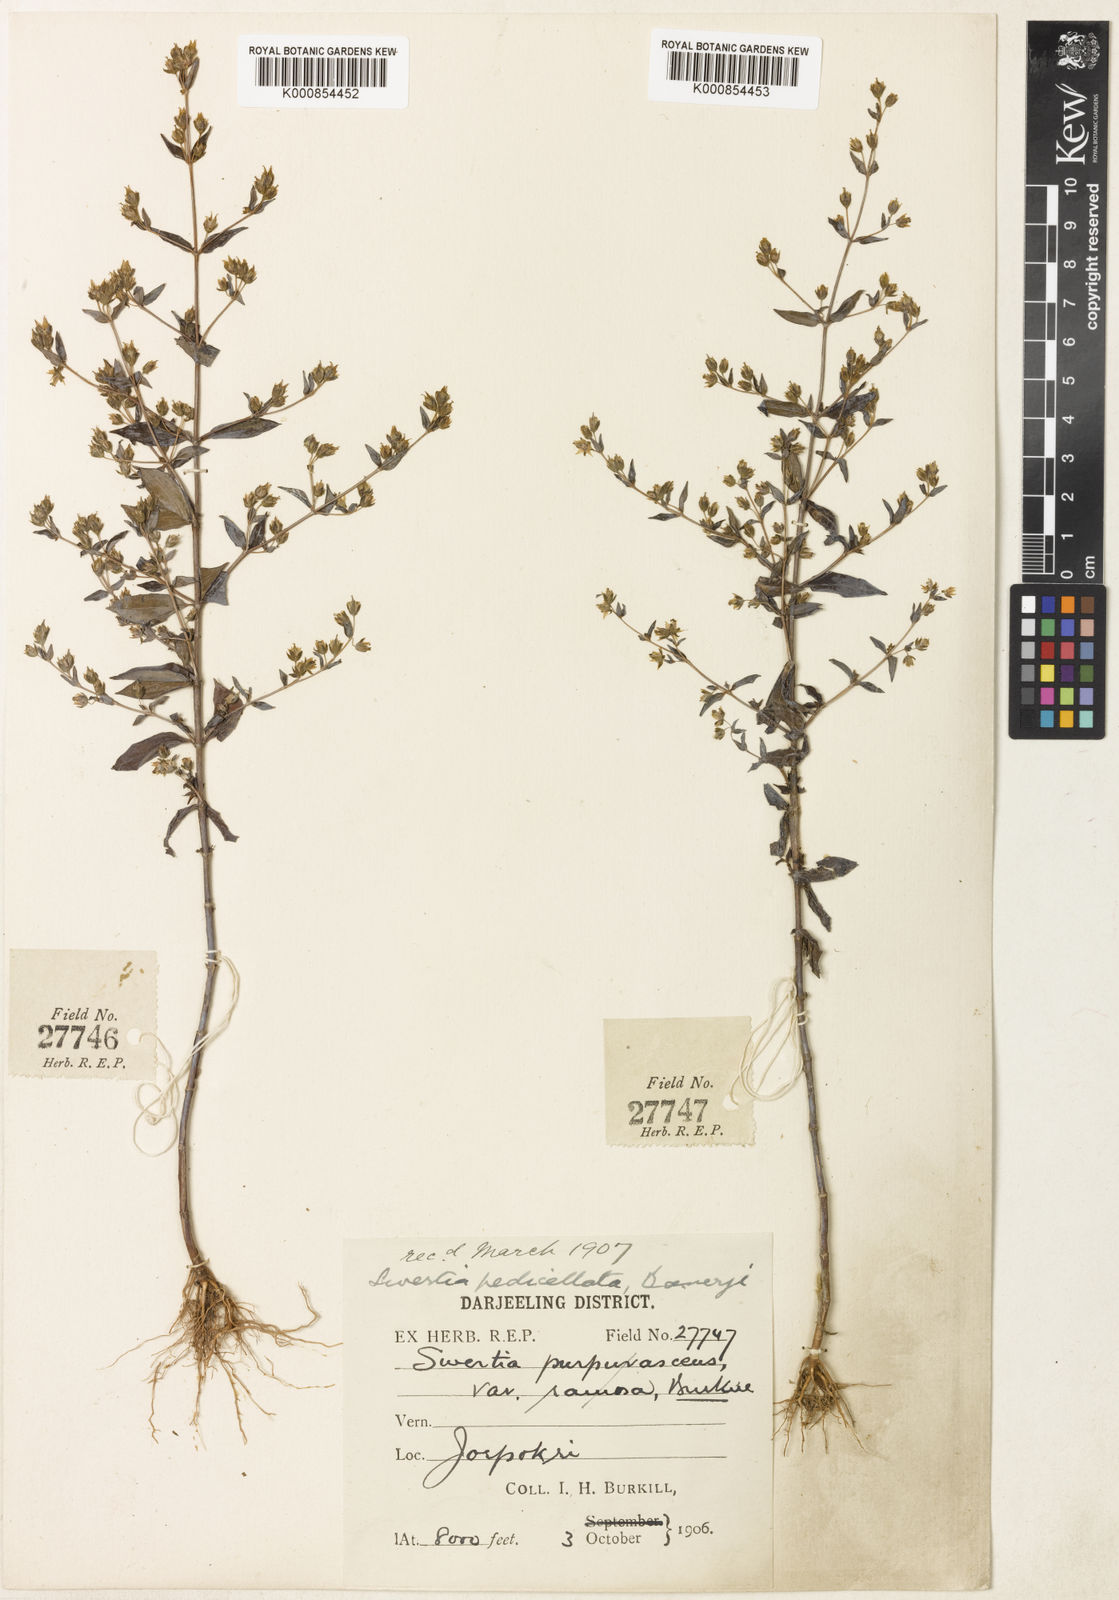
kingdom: Plantae
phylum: Tracheophyta
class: Magnoliopsida
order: Gentianales
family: Gentianaceae
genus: Swertia
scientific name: Swertia purpurascens
